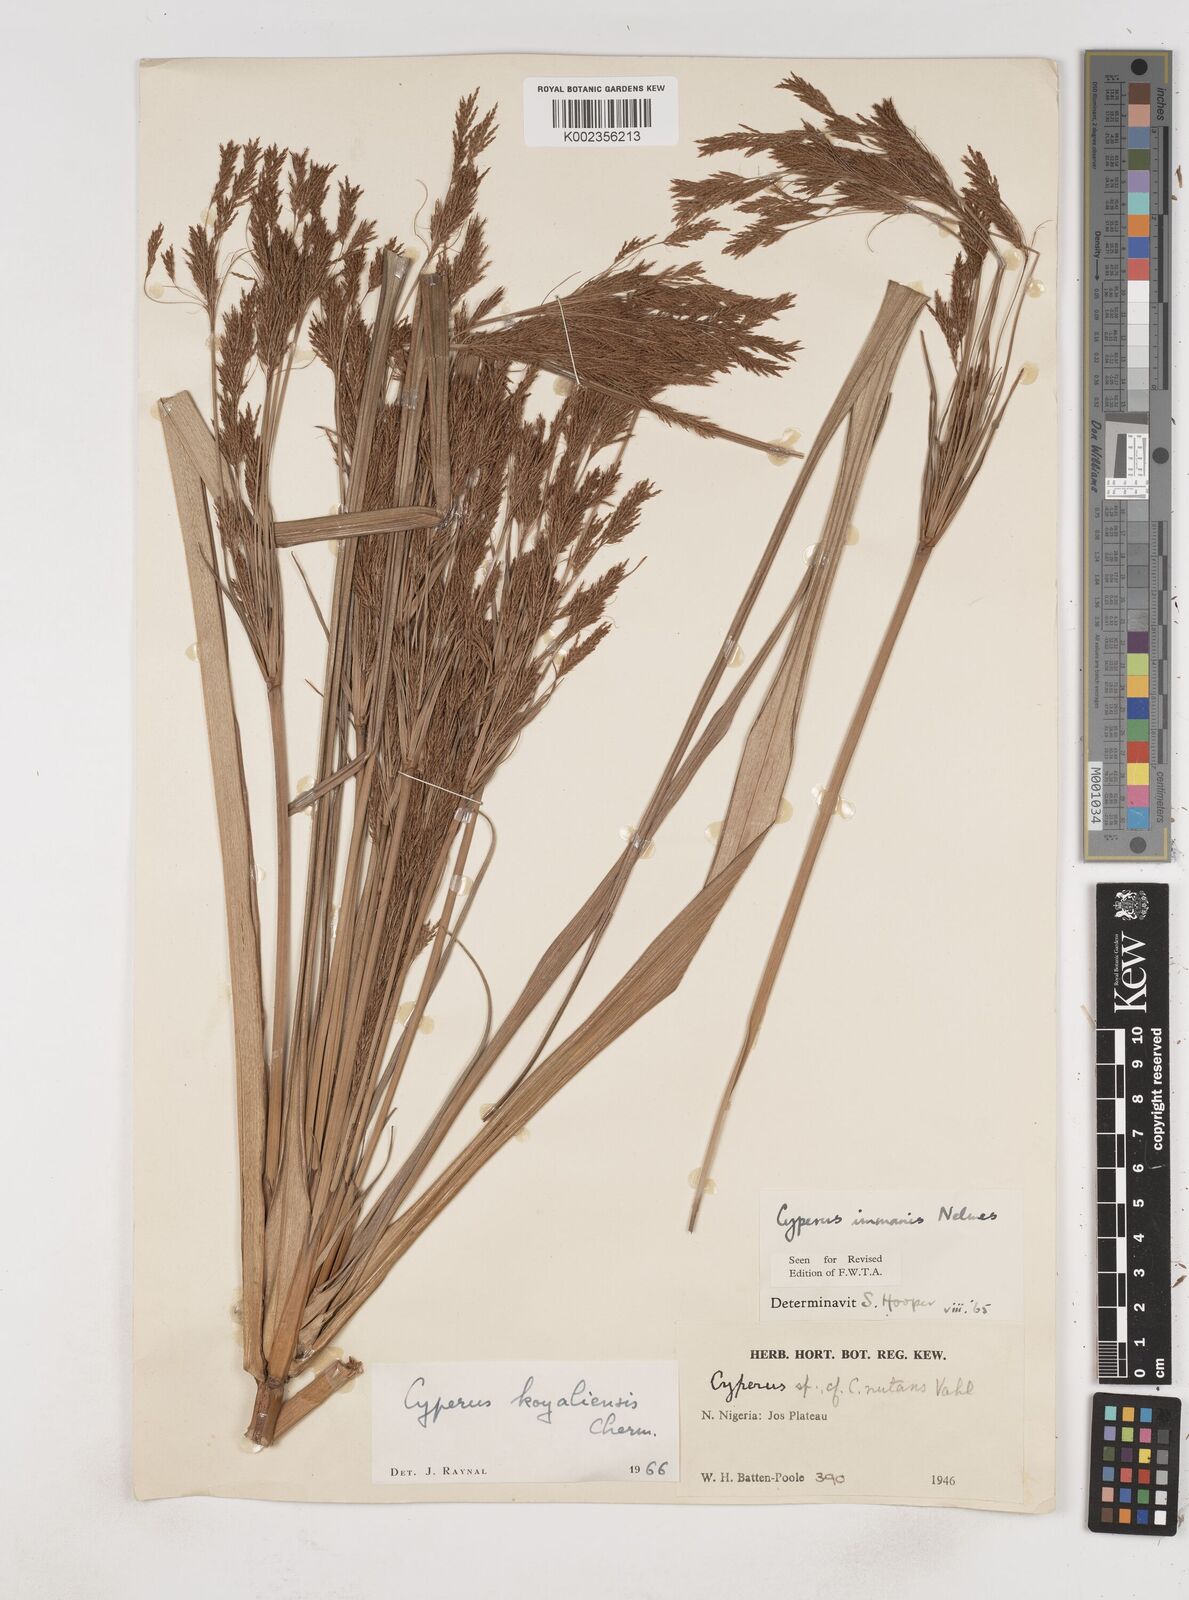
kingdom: Plantae
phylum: Tracheophyta
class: Liliopsida
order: Poales
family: Cyperaceae
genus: Cyperus
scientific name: Cyperus koyaliensis
